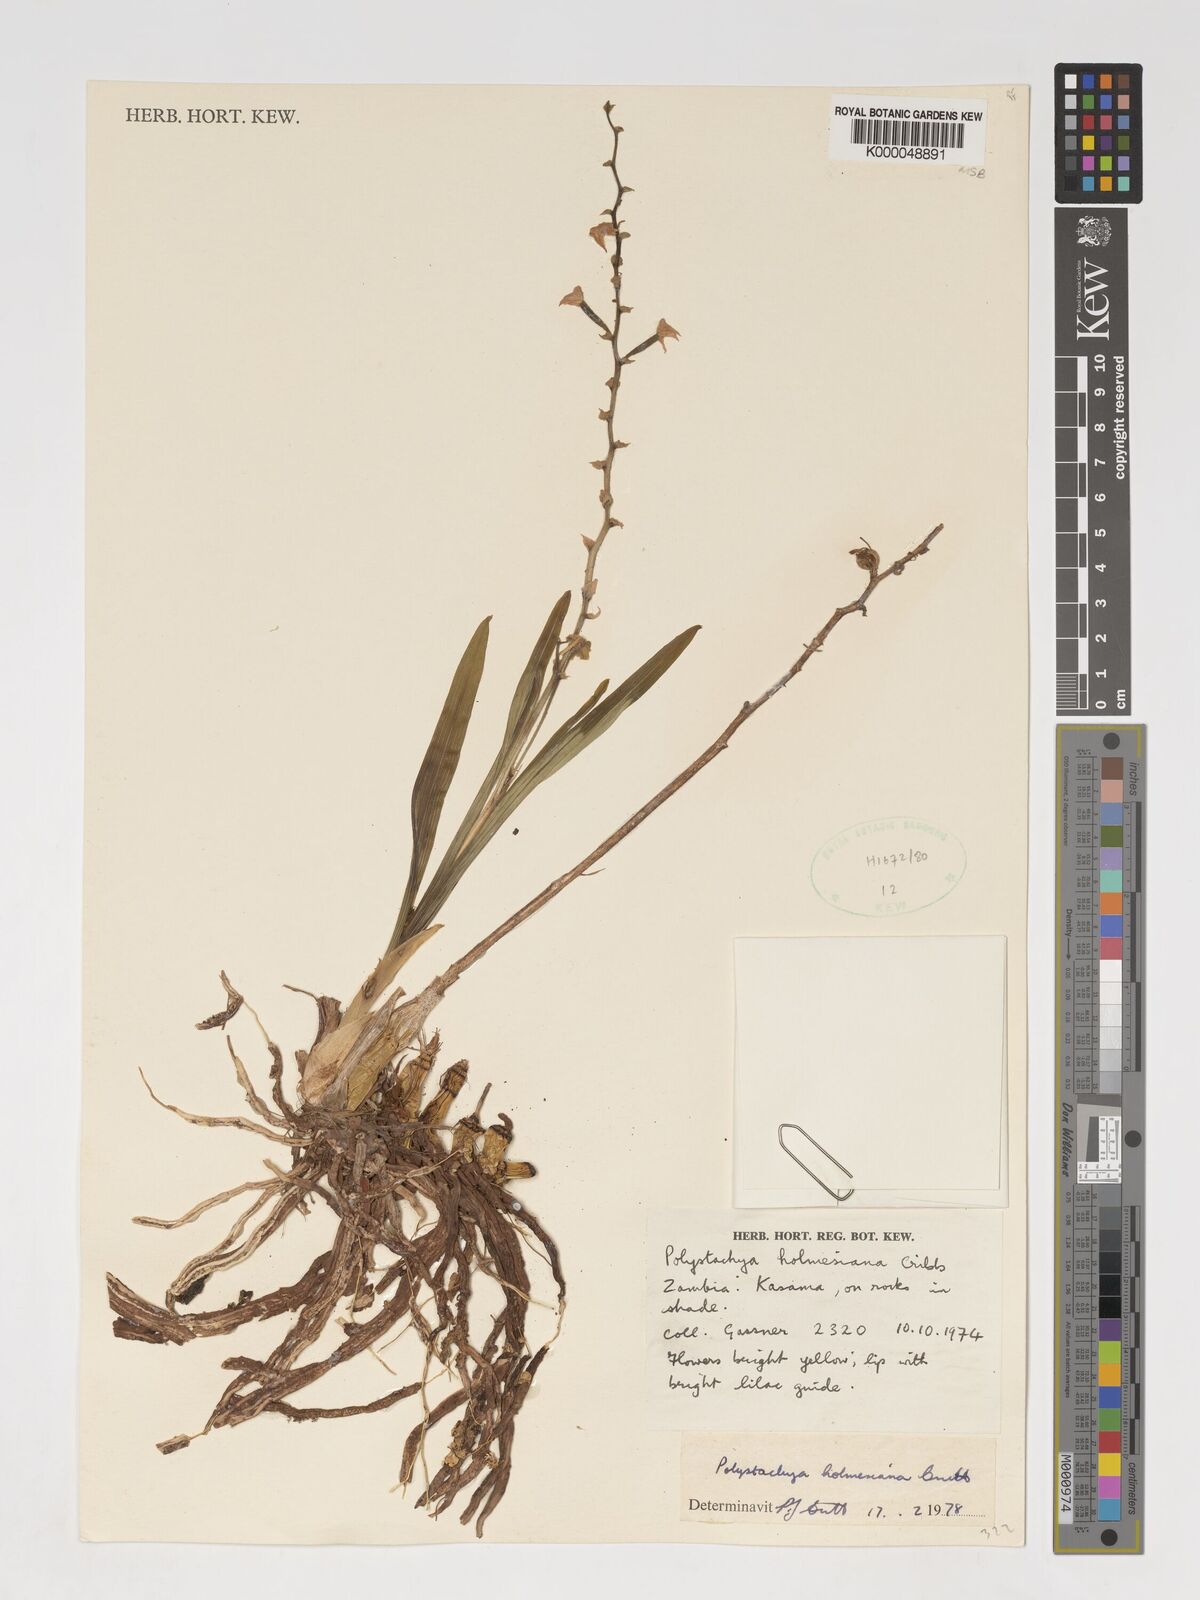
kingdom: Plantae
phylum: Tracheophyta
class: Liliopsida
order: Asparagales
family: Orchidaceae
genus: Polystachya
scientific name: Polystachya holmesiana
